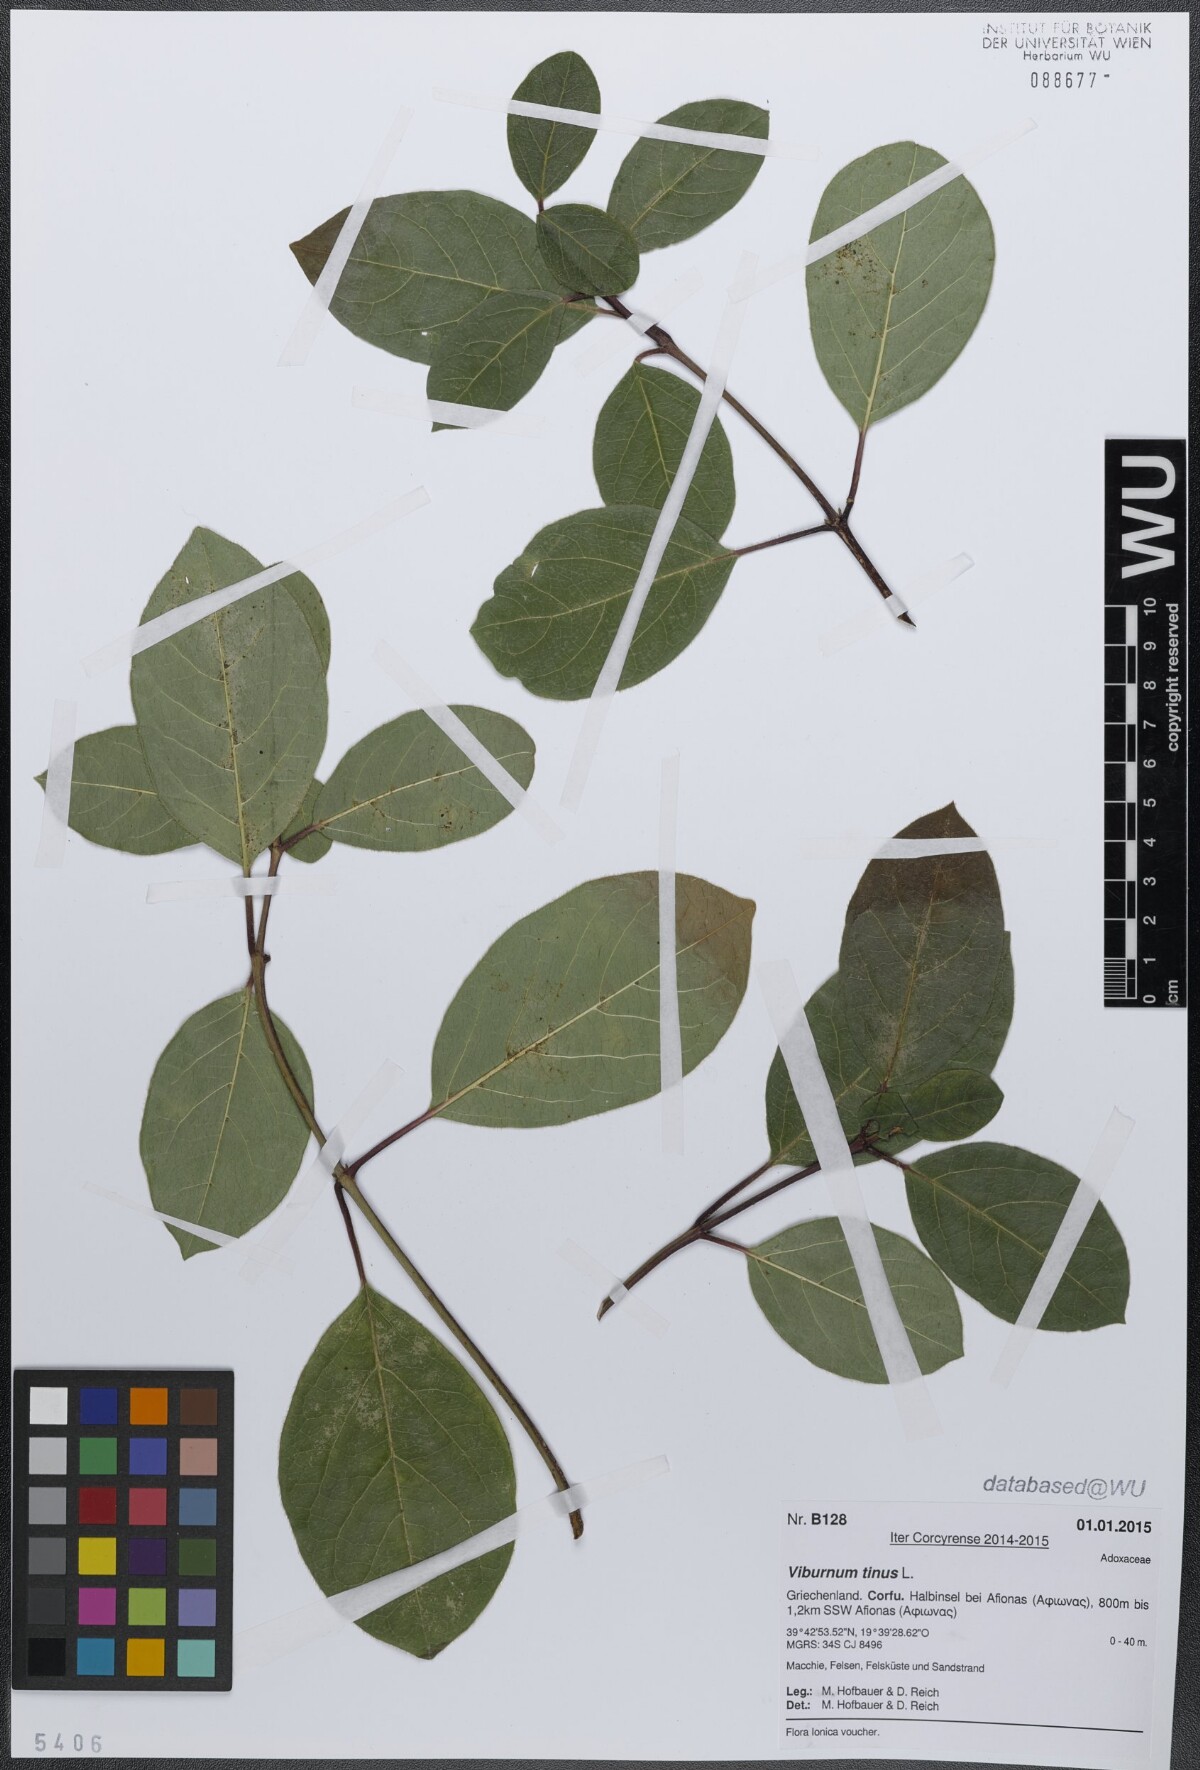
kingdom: Plantae
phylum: Tracheophyta
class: Magnoliopsida
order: Dipsacales
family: Viburnaceae
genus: Viburnum
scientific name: Viburnum tinus
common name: Laurustinus
